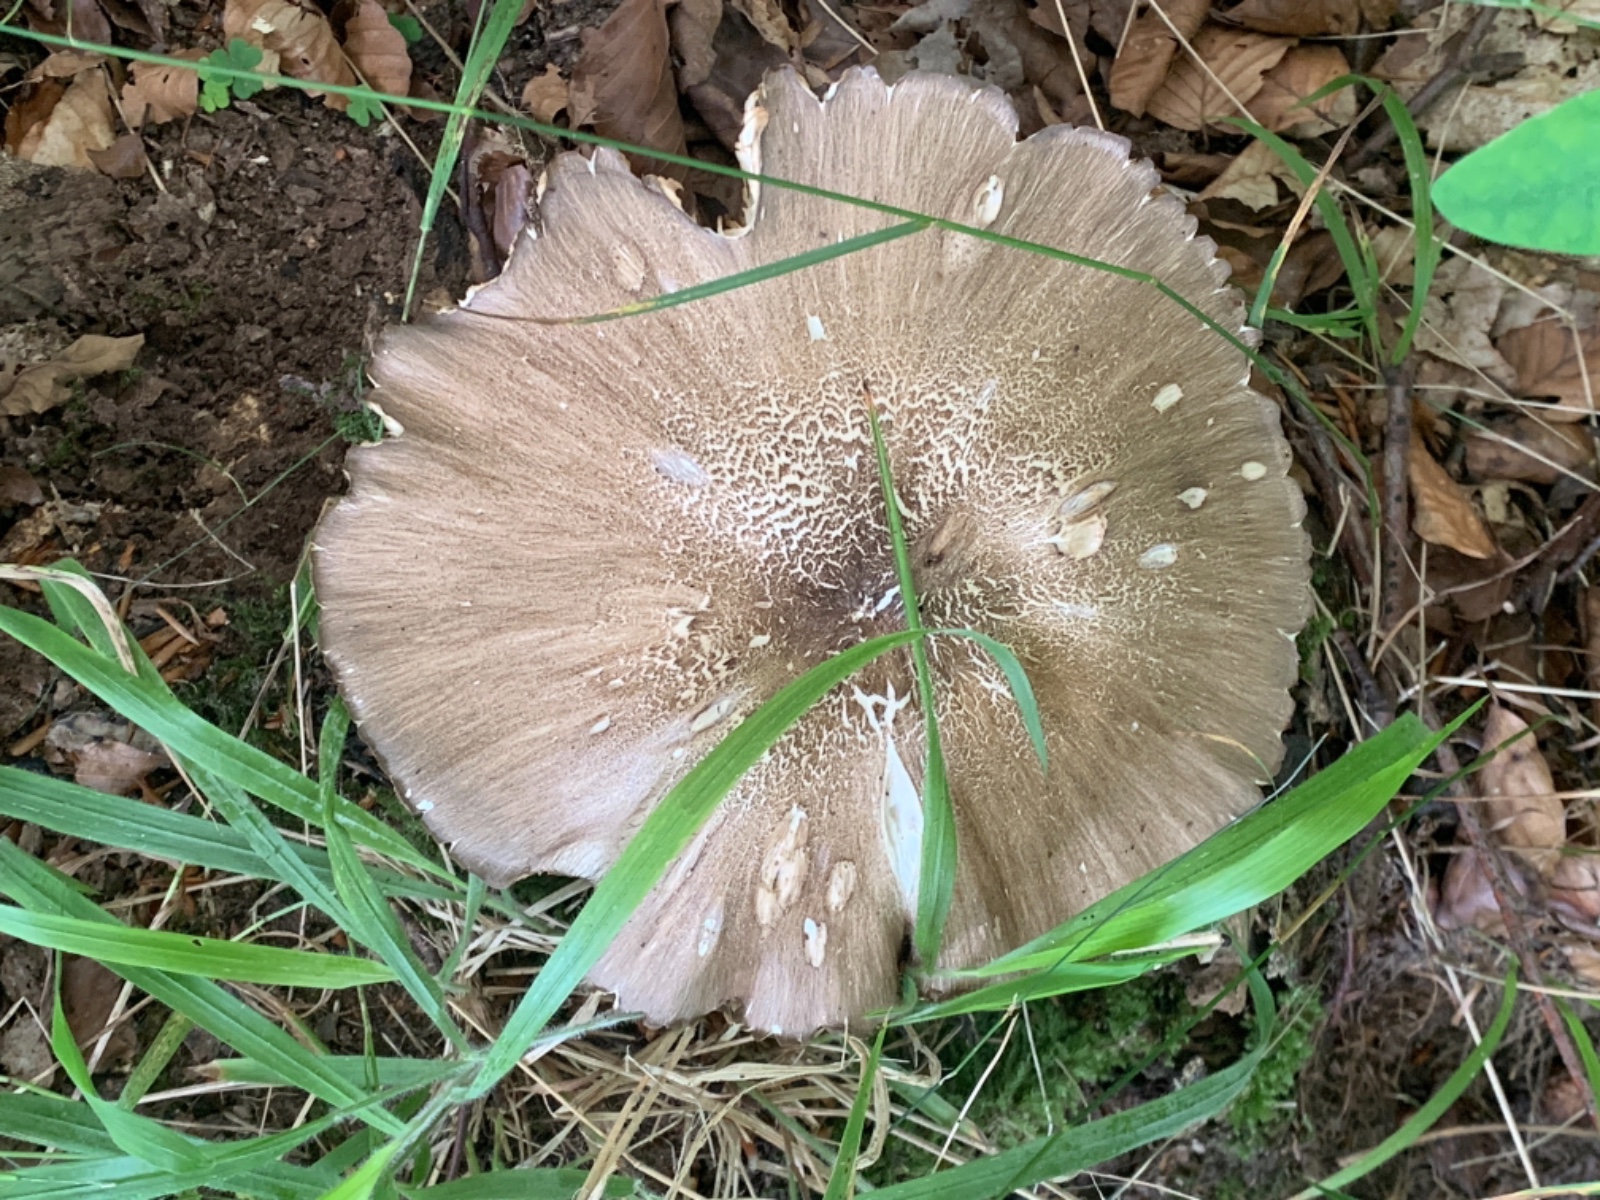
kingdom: Fungi
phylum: Basidiomycota
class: Agaricomycetes
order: Agaricales
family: Tricholomataceae
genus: Megacollybia
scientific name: Megacollybia platyphylla
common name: bredbladet væbnerhat
